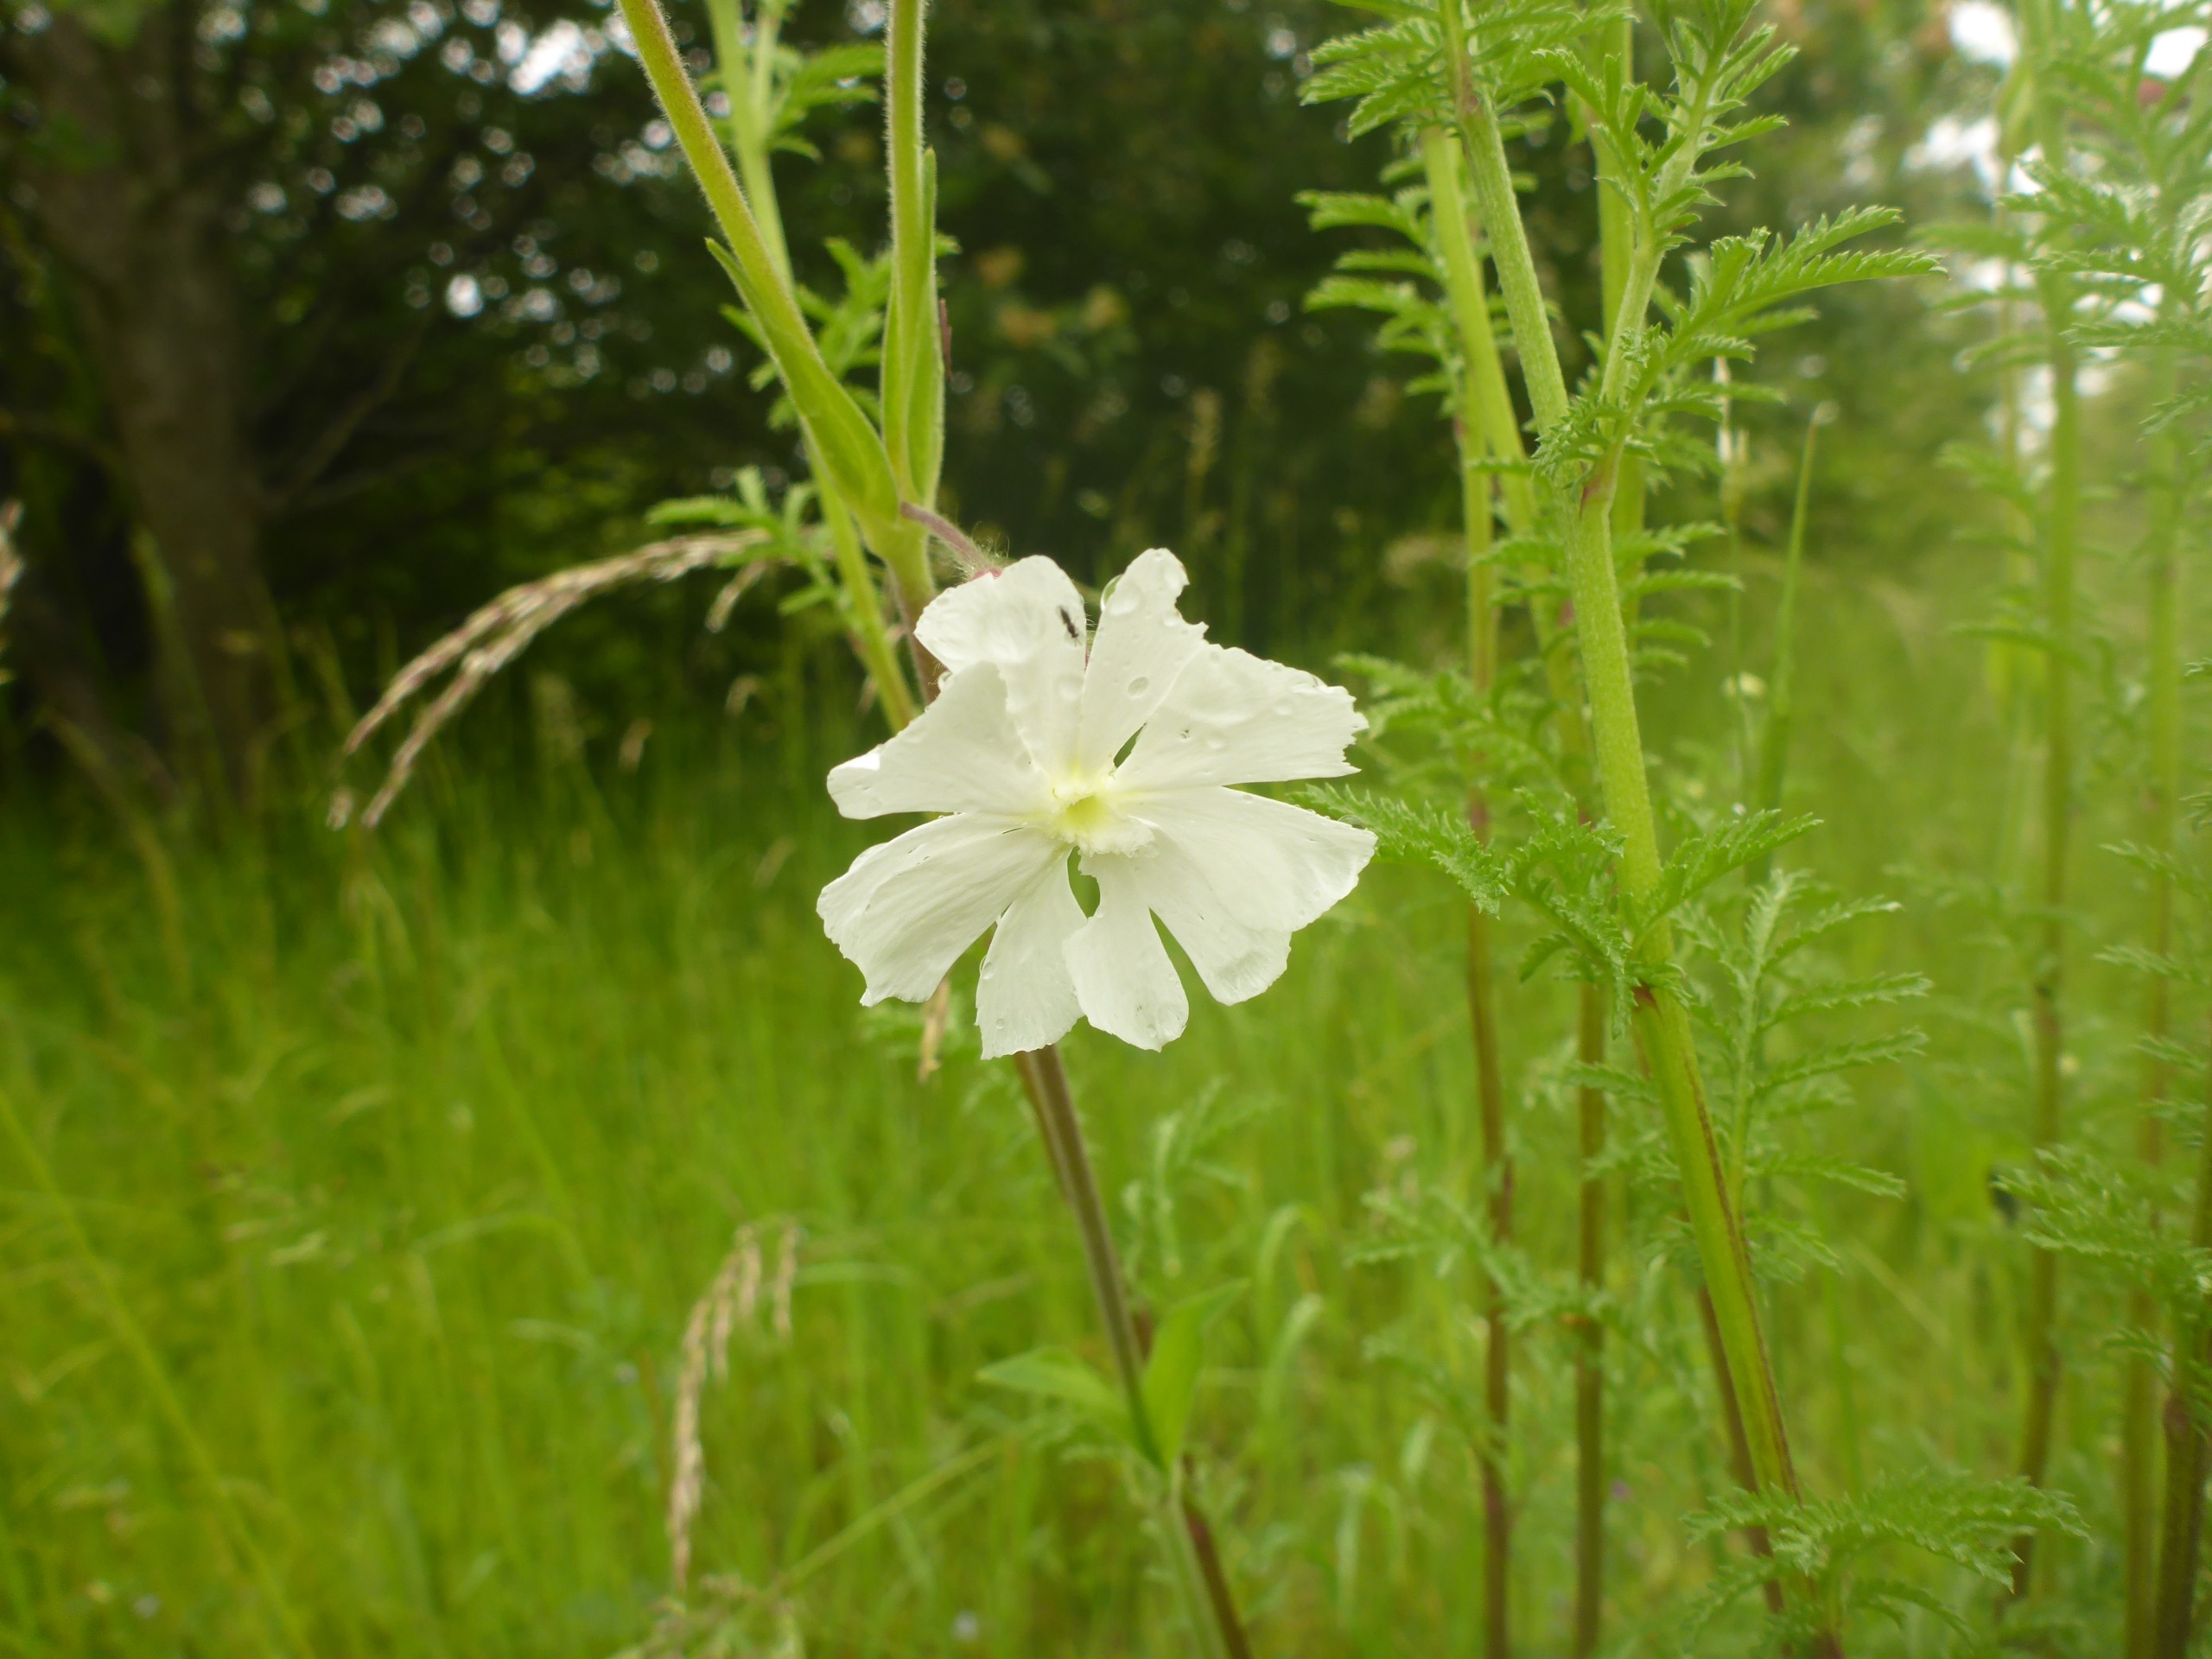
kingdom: Plantae
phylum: Tracheophyta
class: Magnoliopsida
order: Caryophyllales
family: Caryophyllaceae
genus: Silene
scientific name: Silene latifolia
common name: Aftenpragtstjerne
